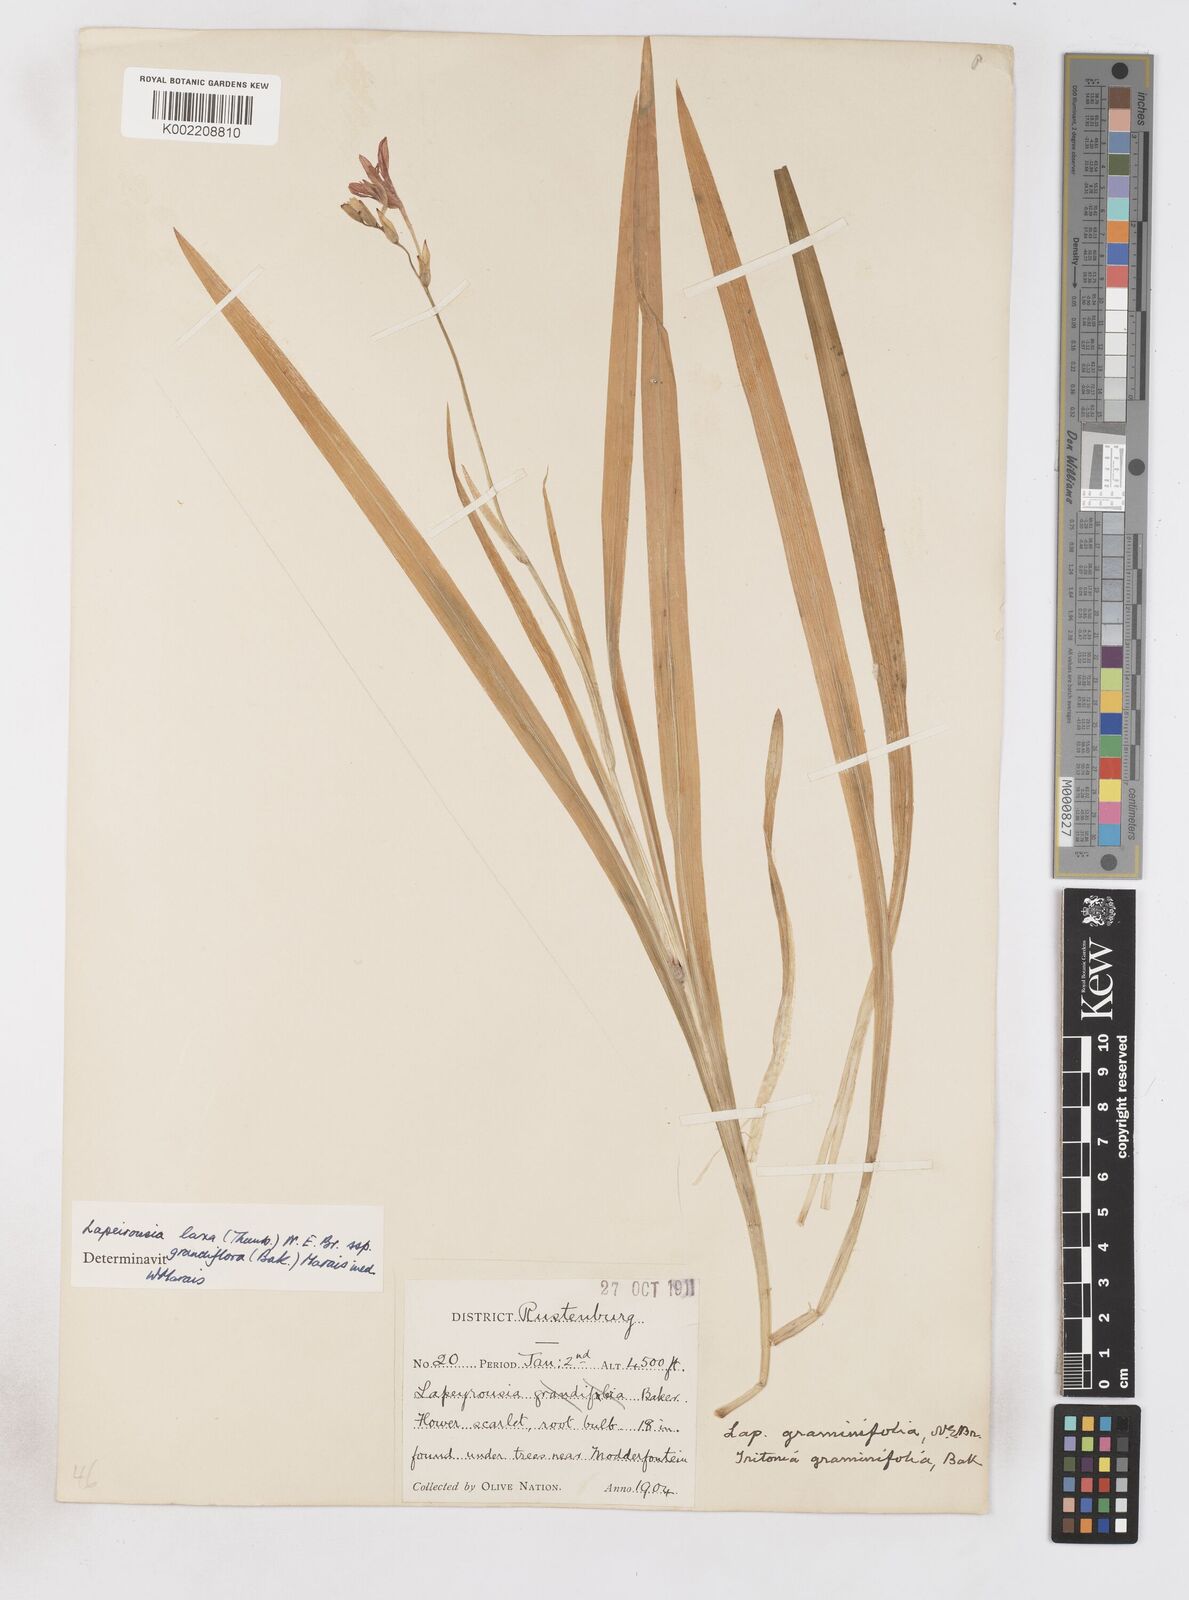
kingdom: Plantae
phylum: Tracheophyta
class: Liliopsida
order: Asparagales
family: Iridaceae
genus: Freesia
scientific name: Freesia grandiflora
